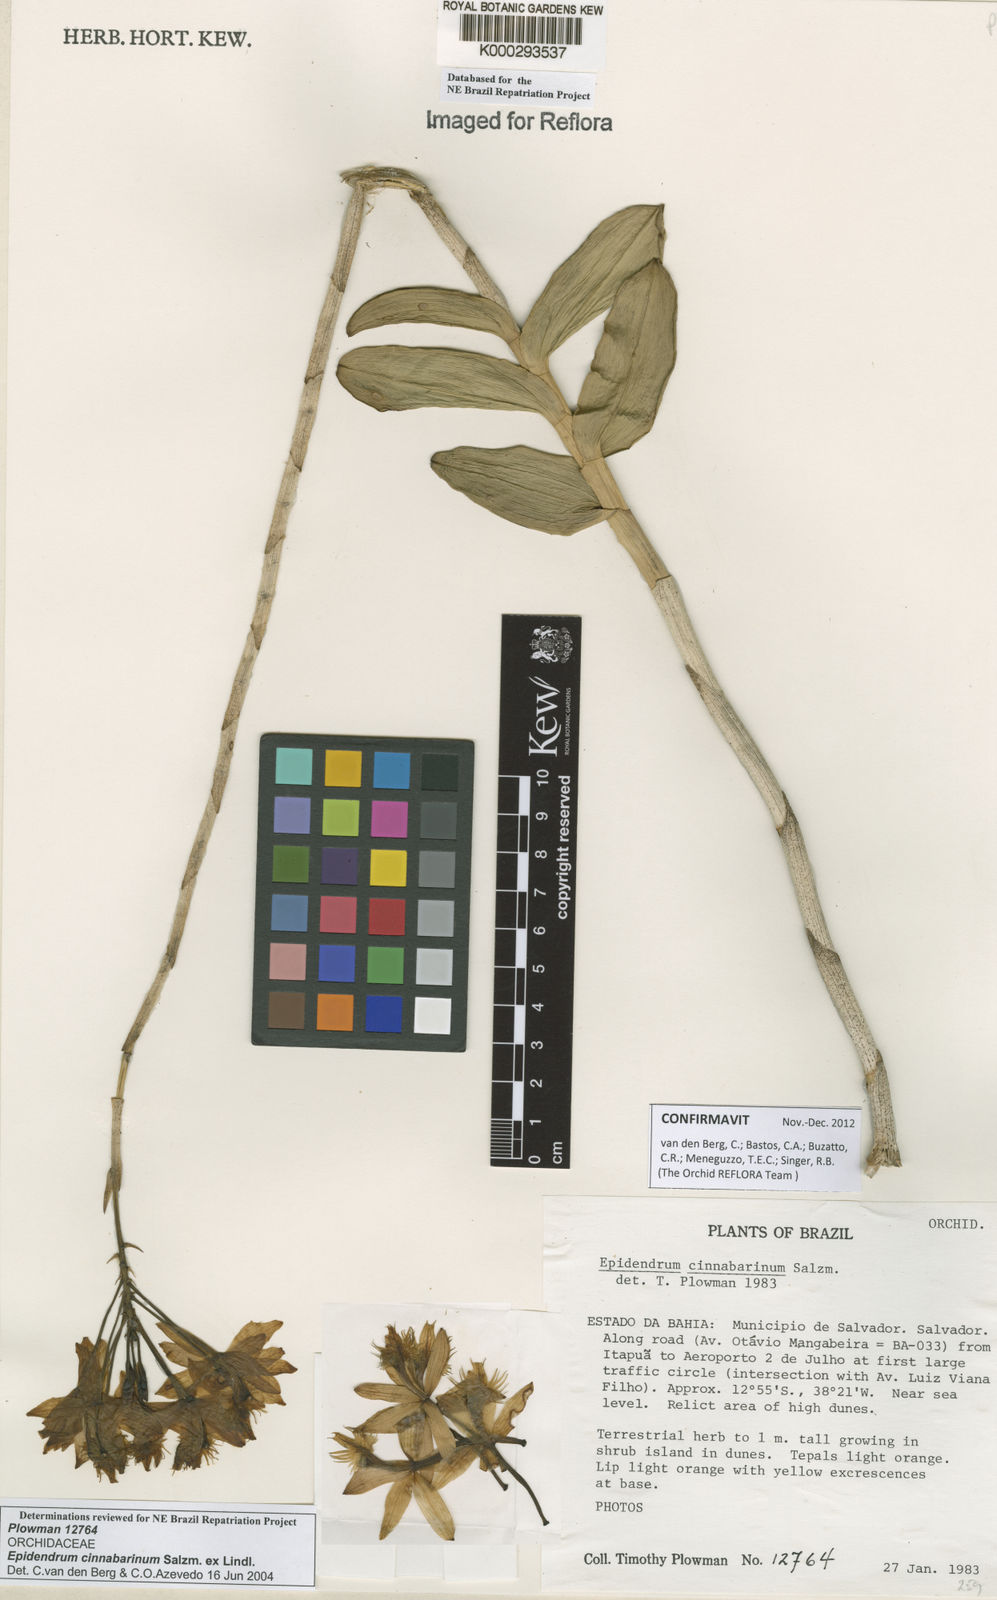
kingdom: Plantae
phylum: Tracheophyta
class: Liliopsida
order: Asparagales
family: Orchidaceae
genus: Epidendrum
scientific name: Epidendrum cinnabarinum
